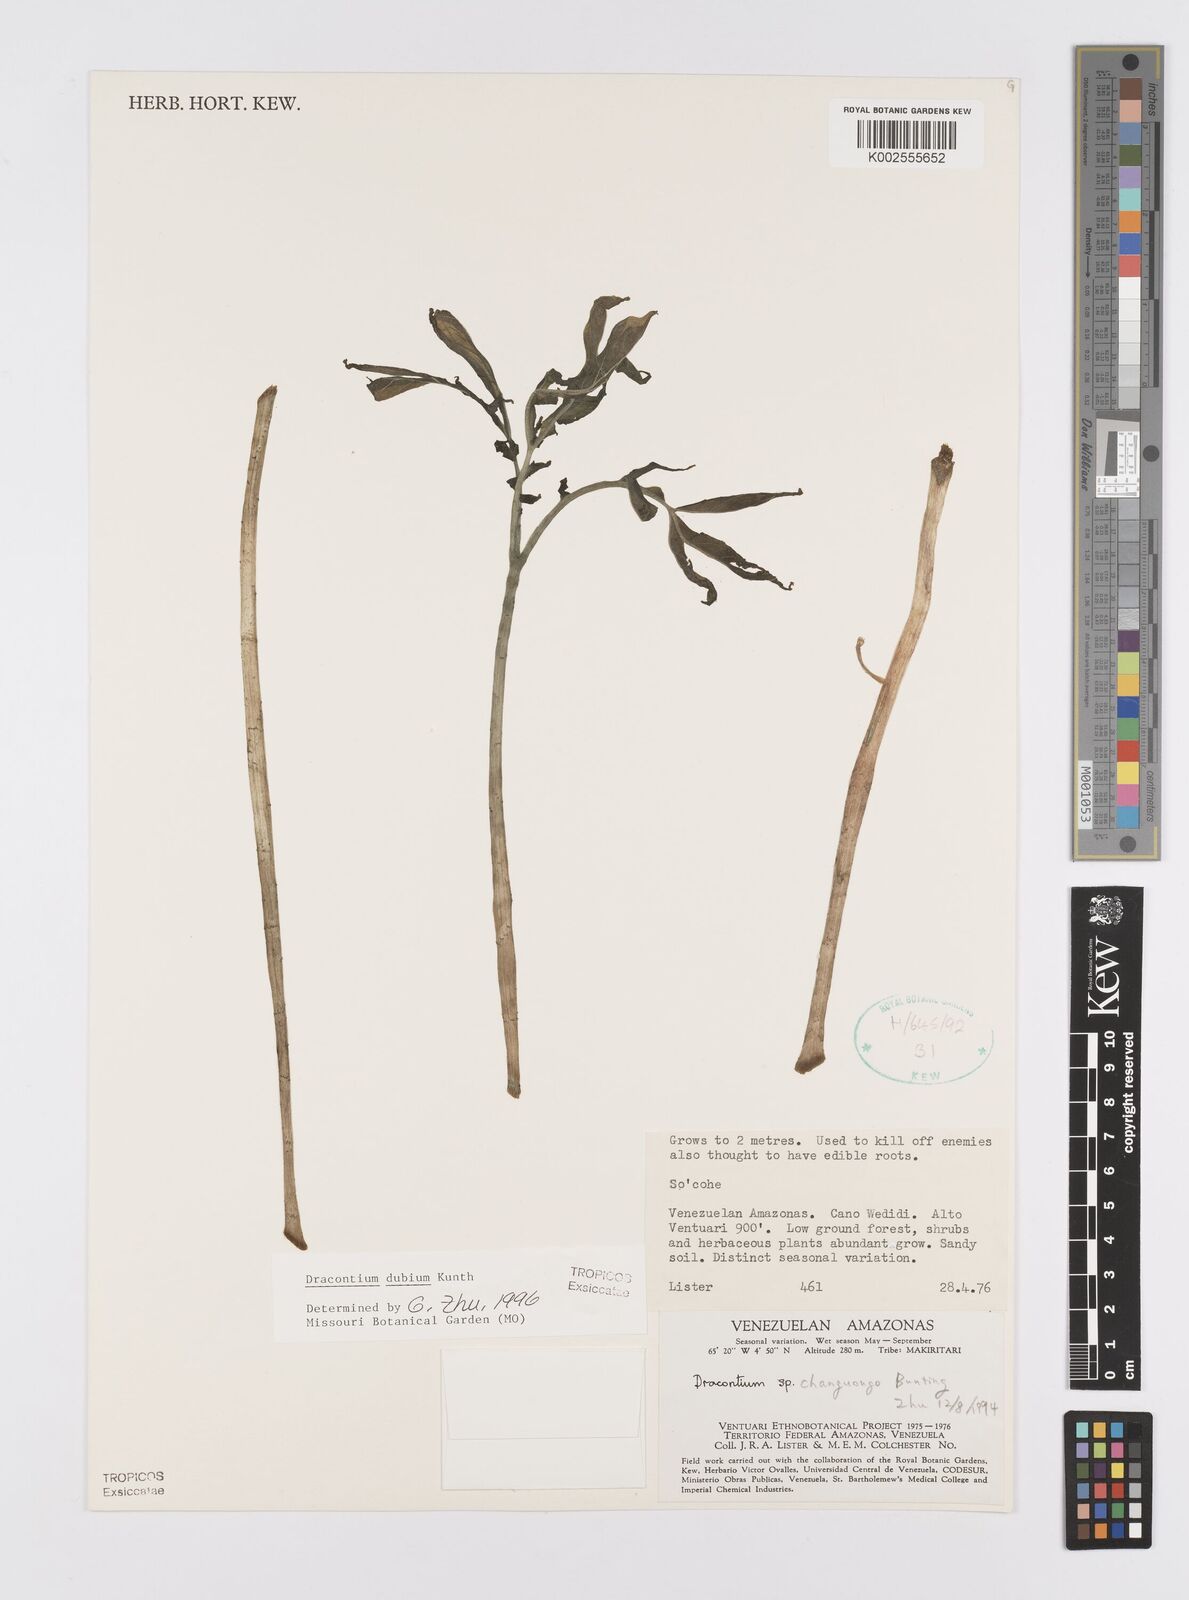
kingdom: Plantae
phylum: Tracheophyta
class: Liliopsida
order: Alismatales
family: Araceae
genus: Dracontium
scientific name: Dracontium dubium
